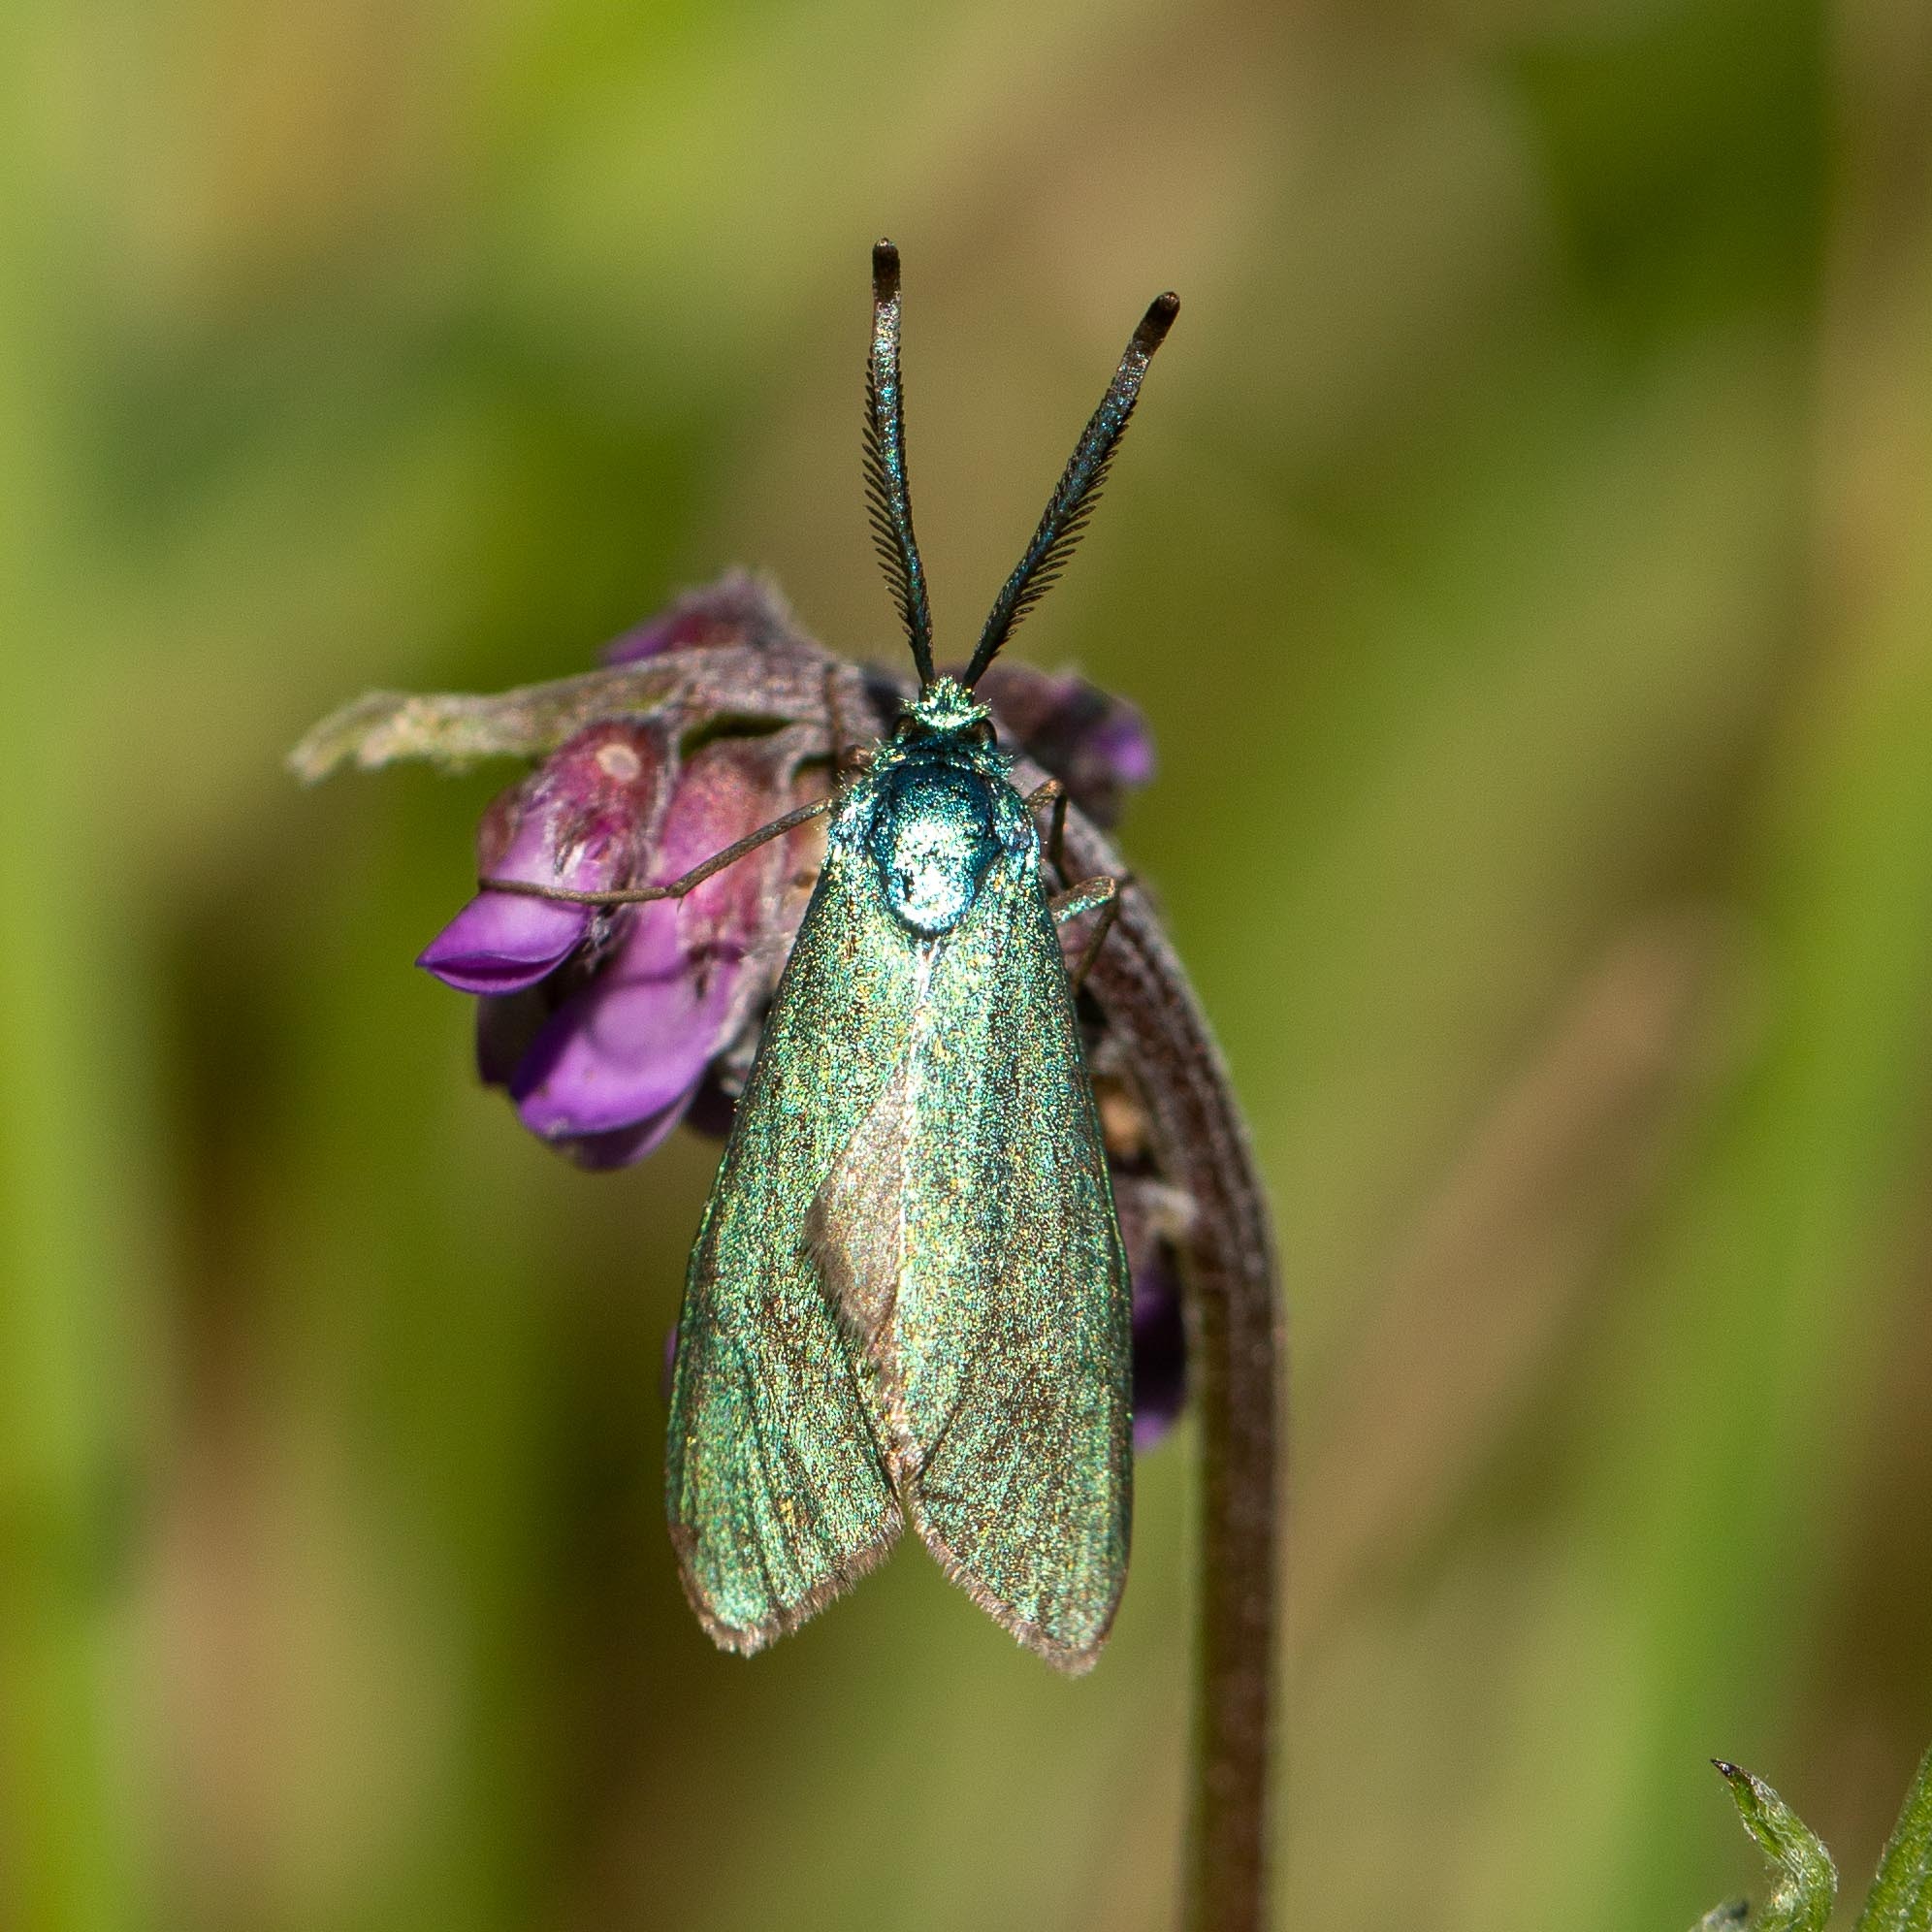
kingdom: Animalia
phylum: Arthropoda
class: Insecta
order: Lepidoptera
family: Zygaenidae
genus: Adscita
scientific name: Adscita statices
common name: Metalvinge
